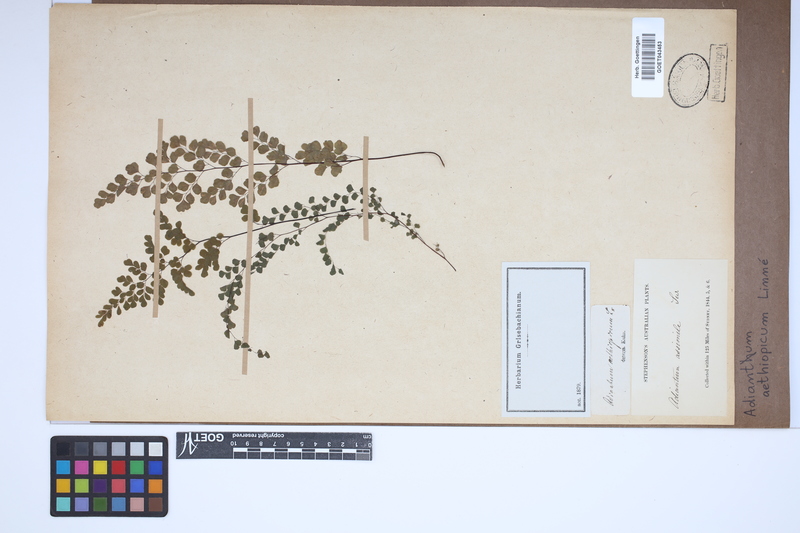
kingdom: Plantae
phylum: Tracheophyta
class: Polypodiopsida
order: Polypodiales
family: Pteridaceae
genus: Adiantum
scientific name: Adiantum aethiopicum
